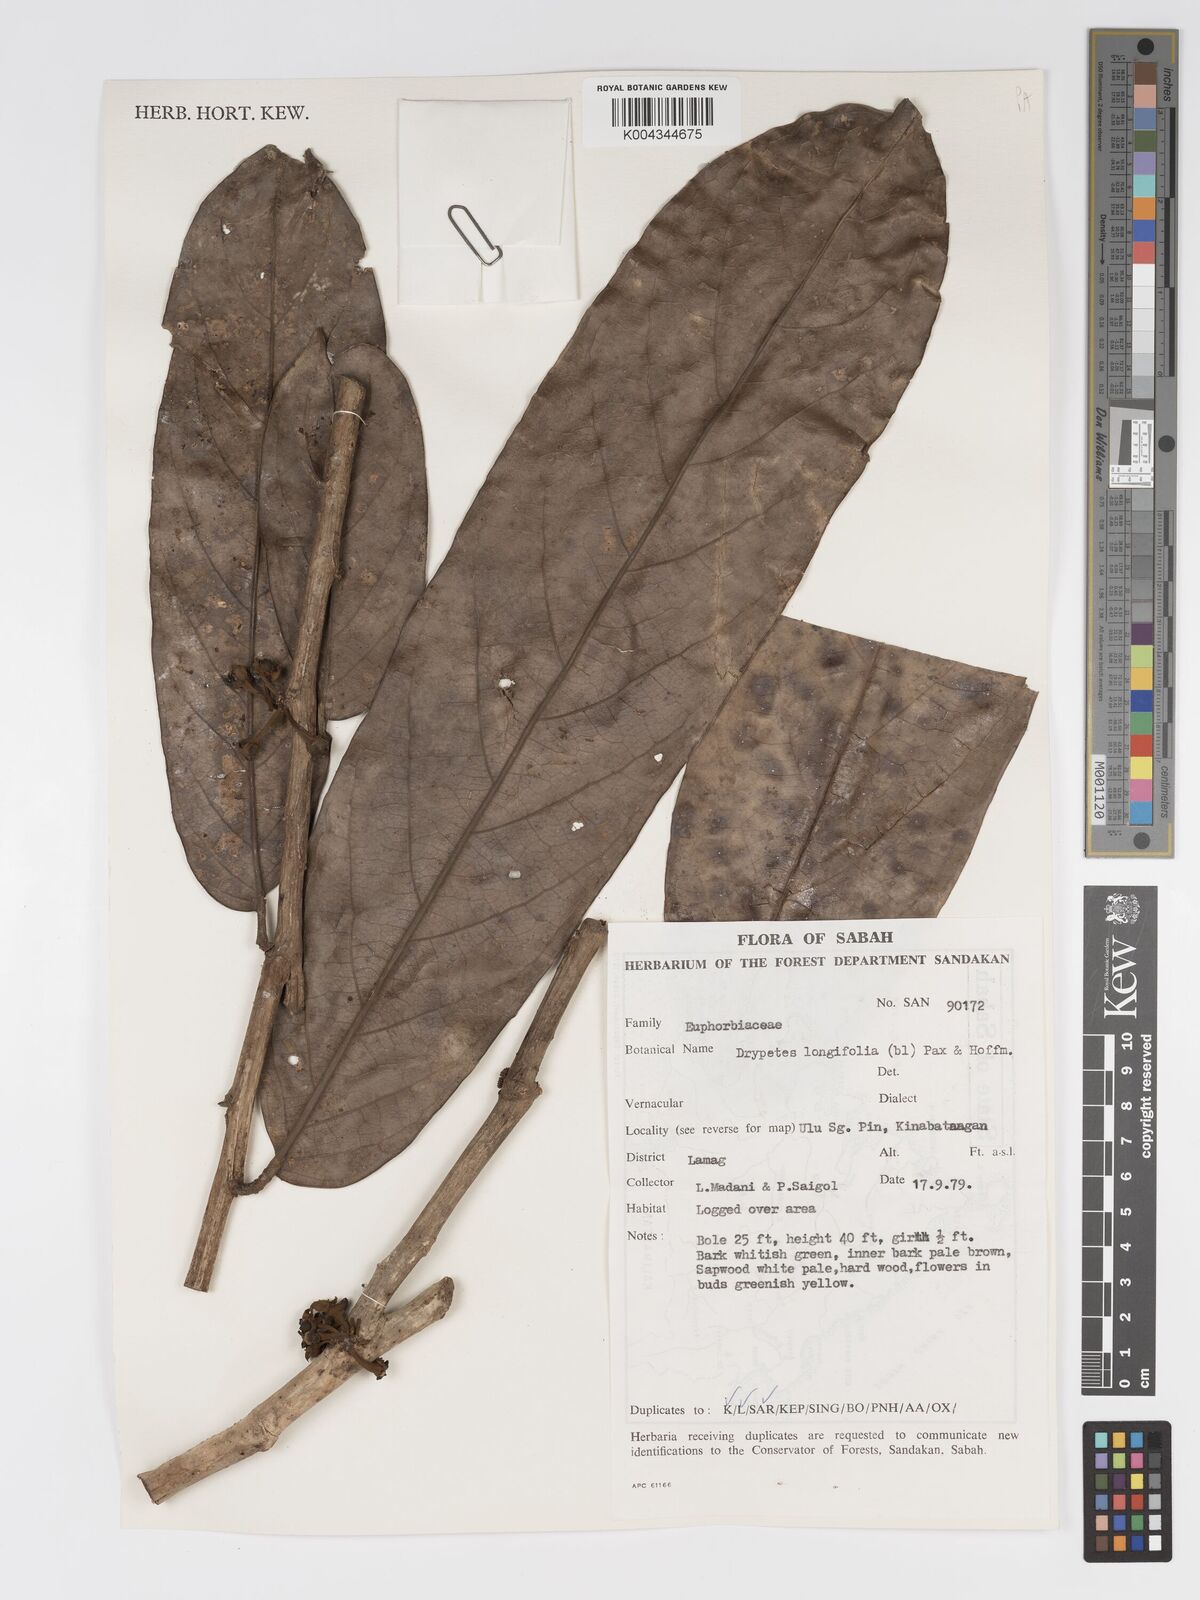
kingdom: Plantae
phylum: Tracheophyta
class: Magnoliopsida
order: Malpighiales
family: Putranjivaceae
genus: Drypetes
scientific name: Drypetes longifolia
